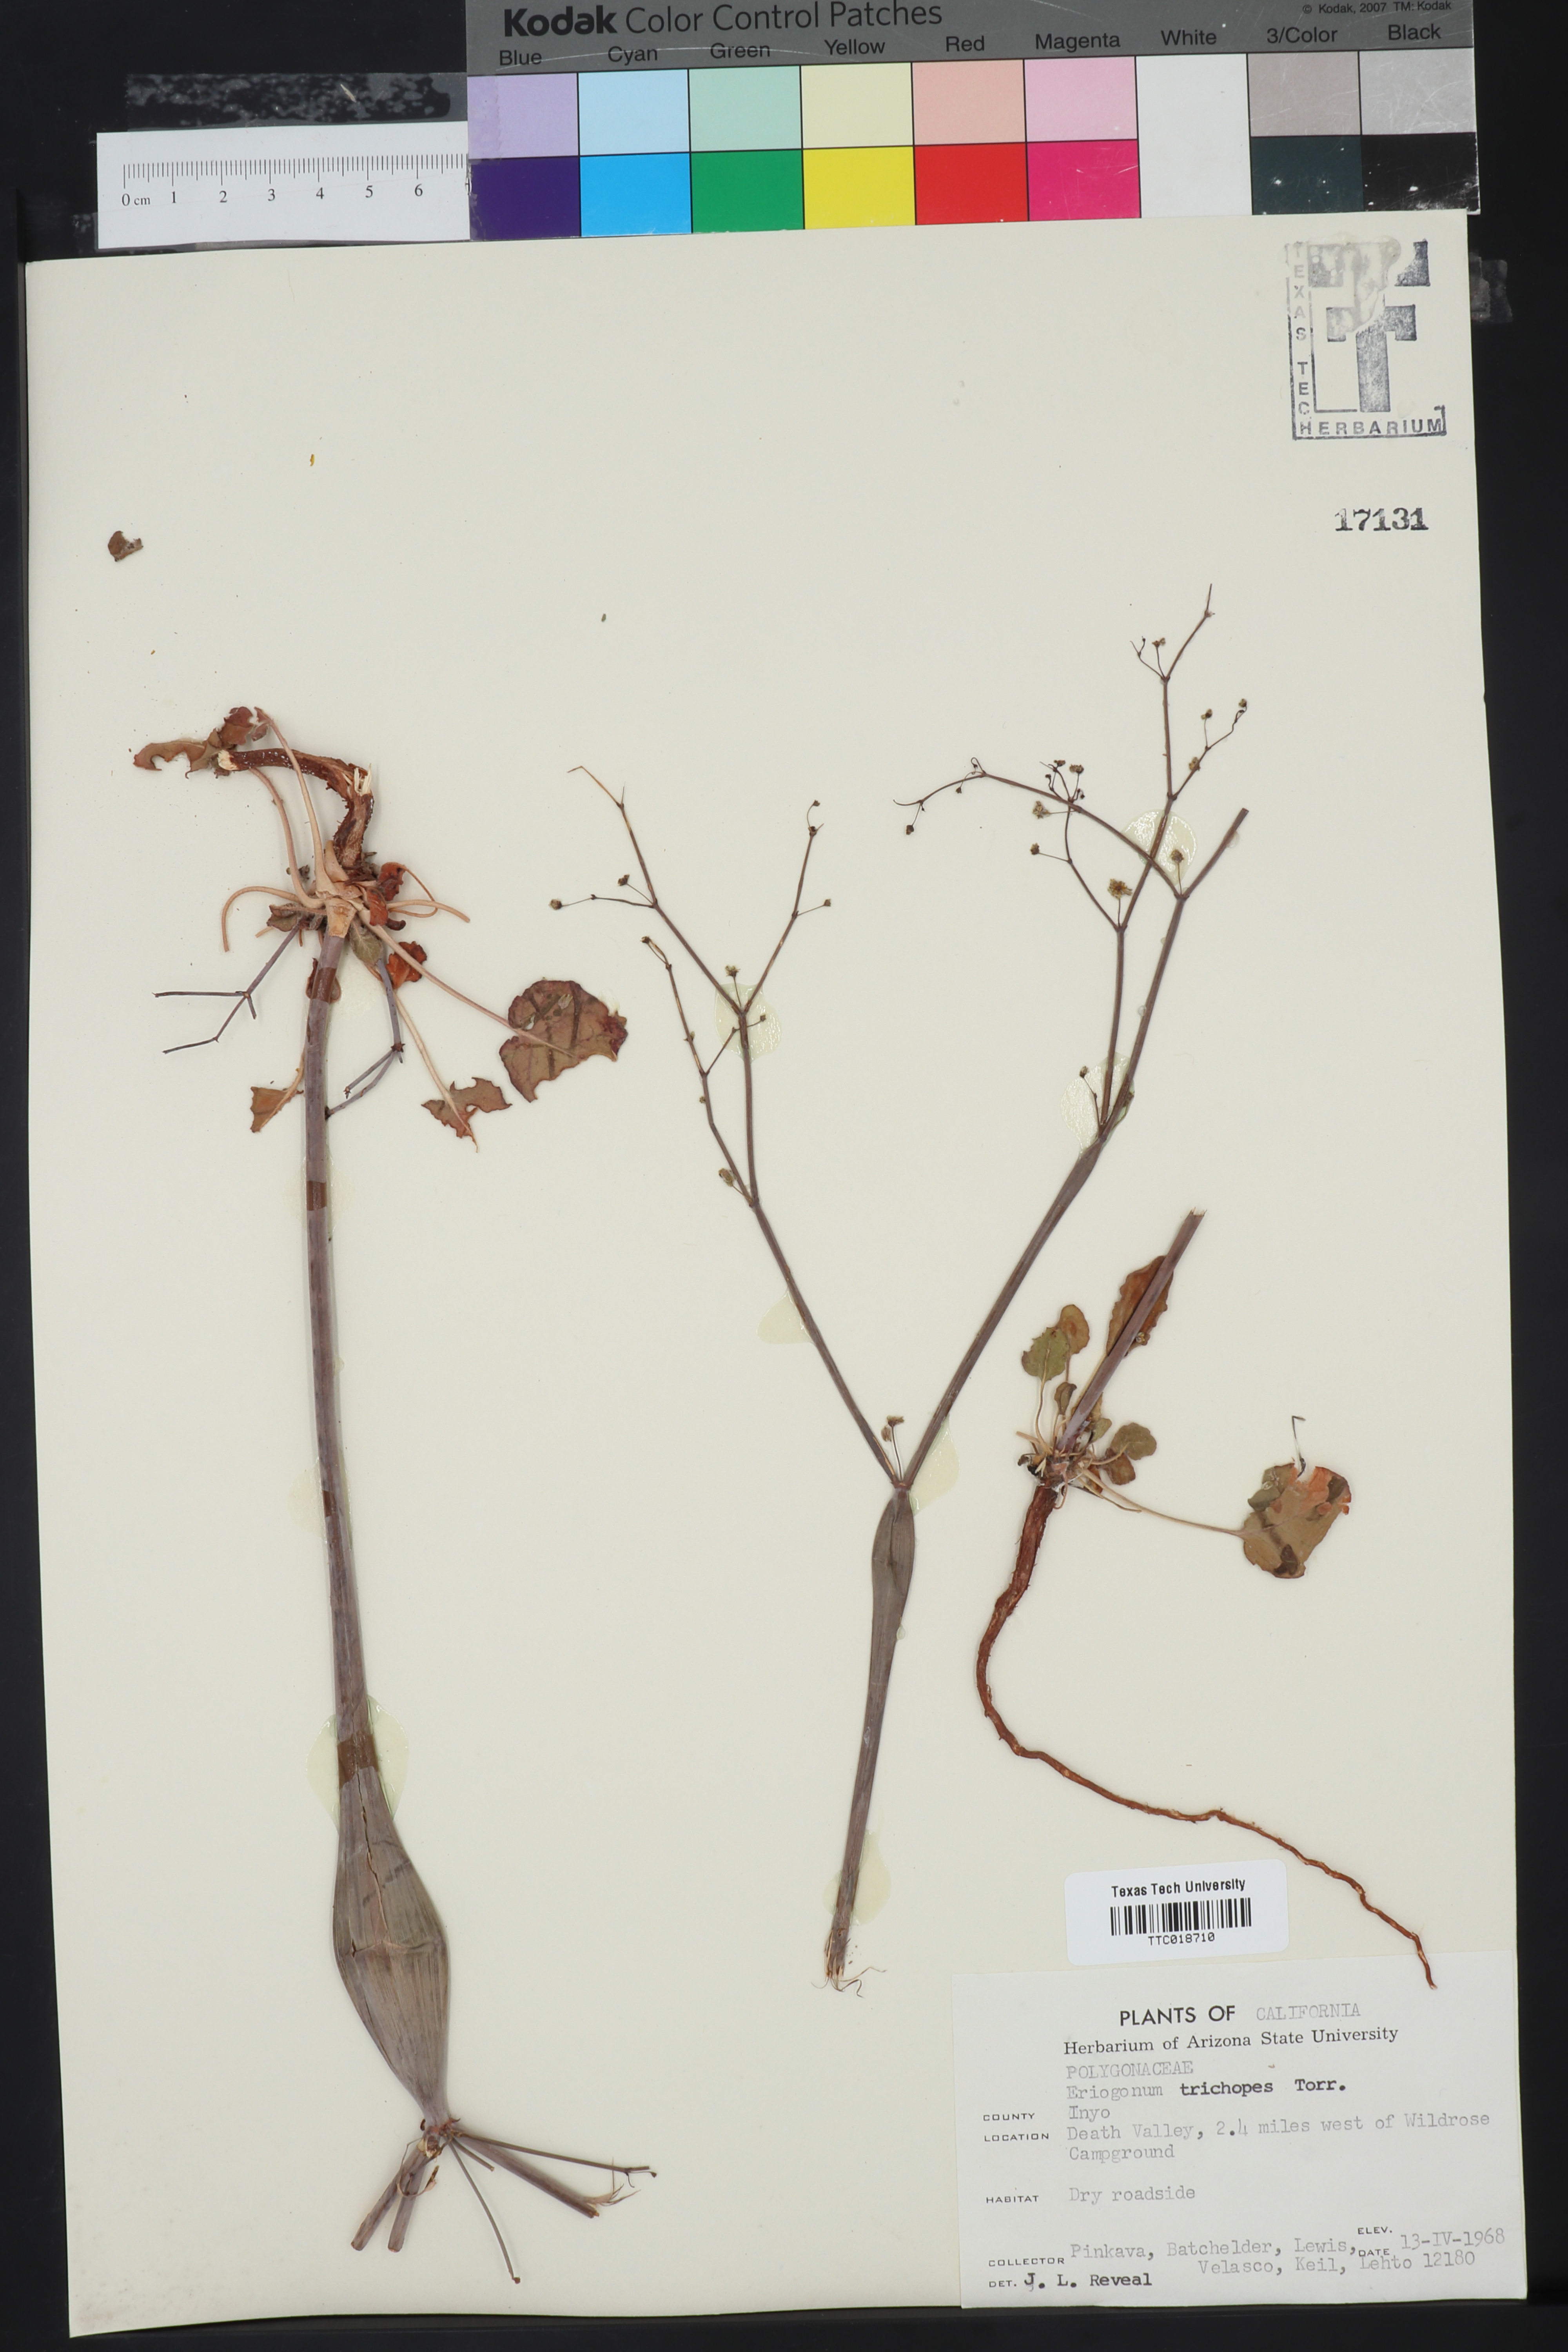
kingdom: Plantae
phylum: Tracheophyta
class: Magnoliopsida
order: Caryophyllales
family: Polygonaceae
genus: Eriogonum
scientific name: Eriogonum trichopes
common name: Little desert trumpet
